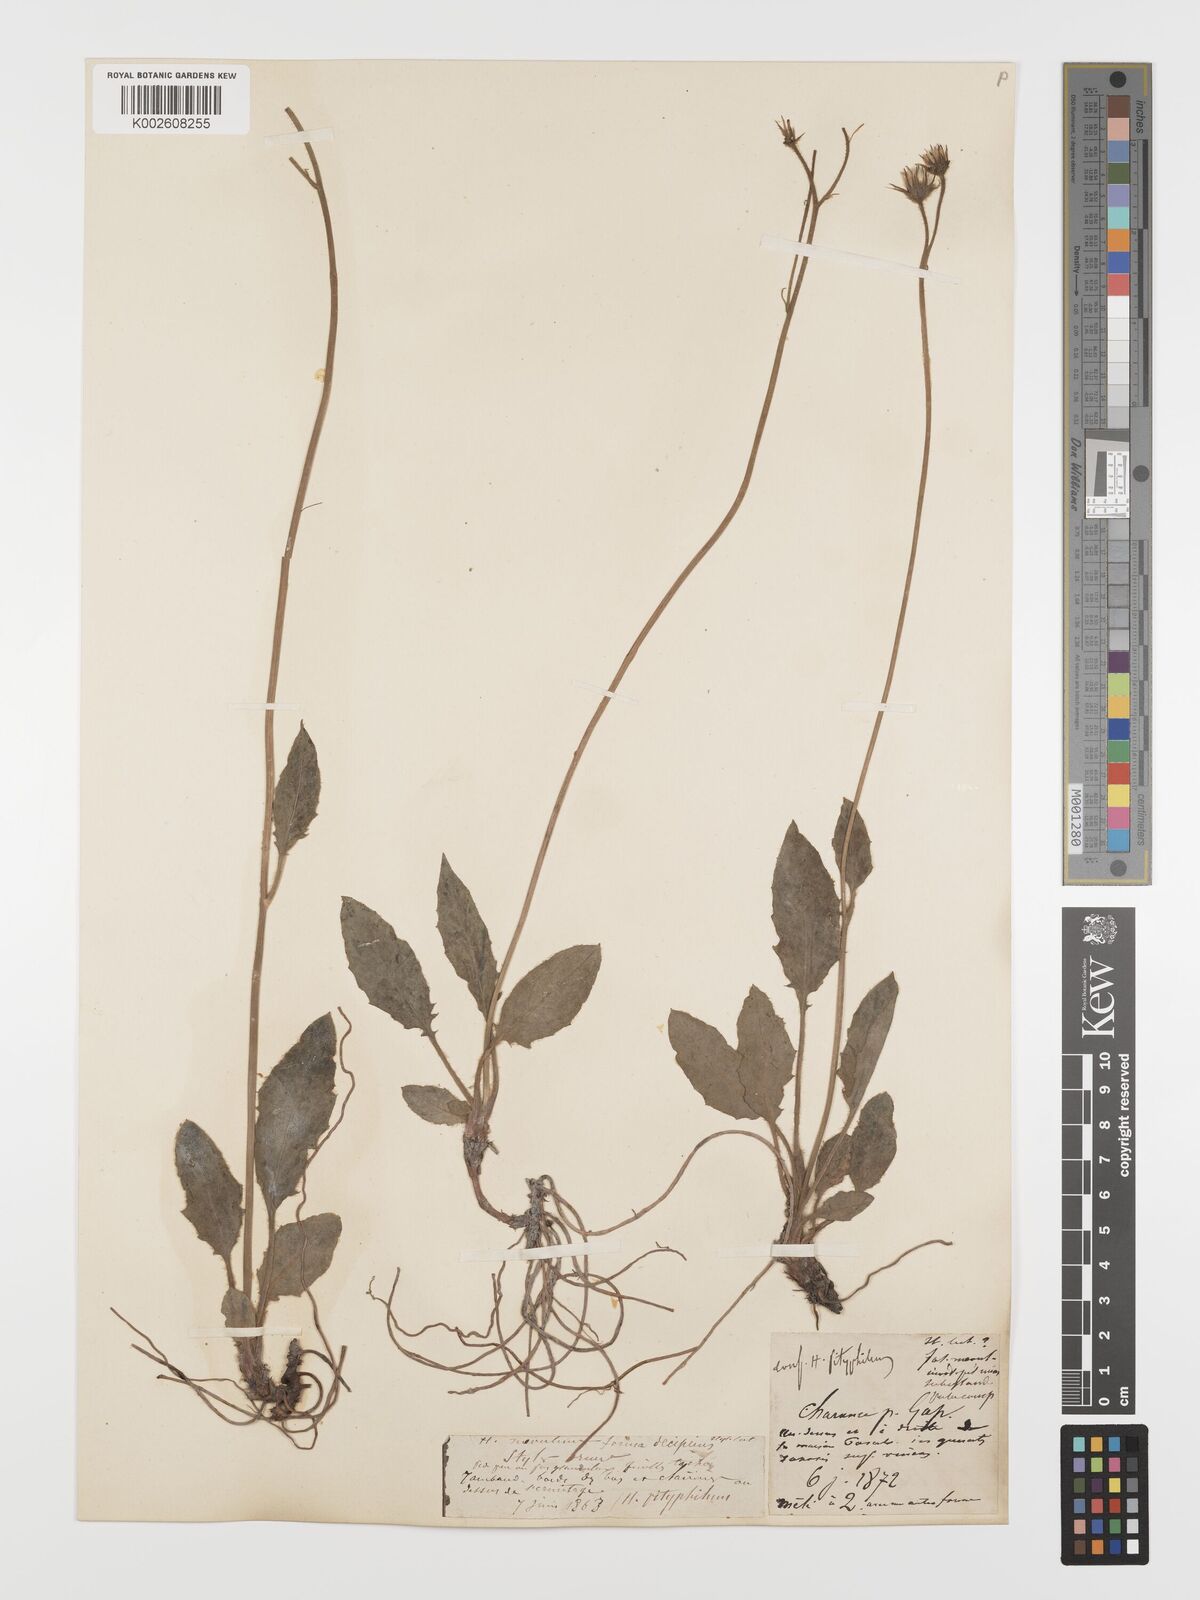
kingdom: Plantae
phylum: Tracheophyta
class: Magnoliopsida
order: Asterales
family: Asteraceae
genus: Hieracium
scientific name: Hieracium
